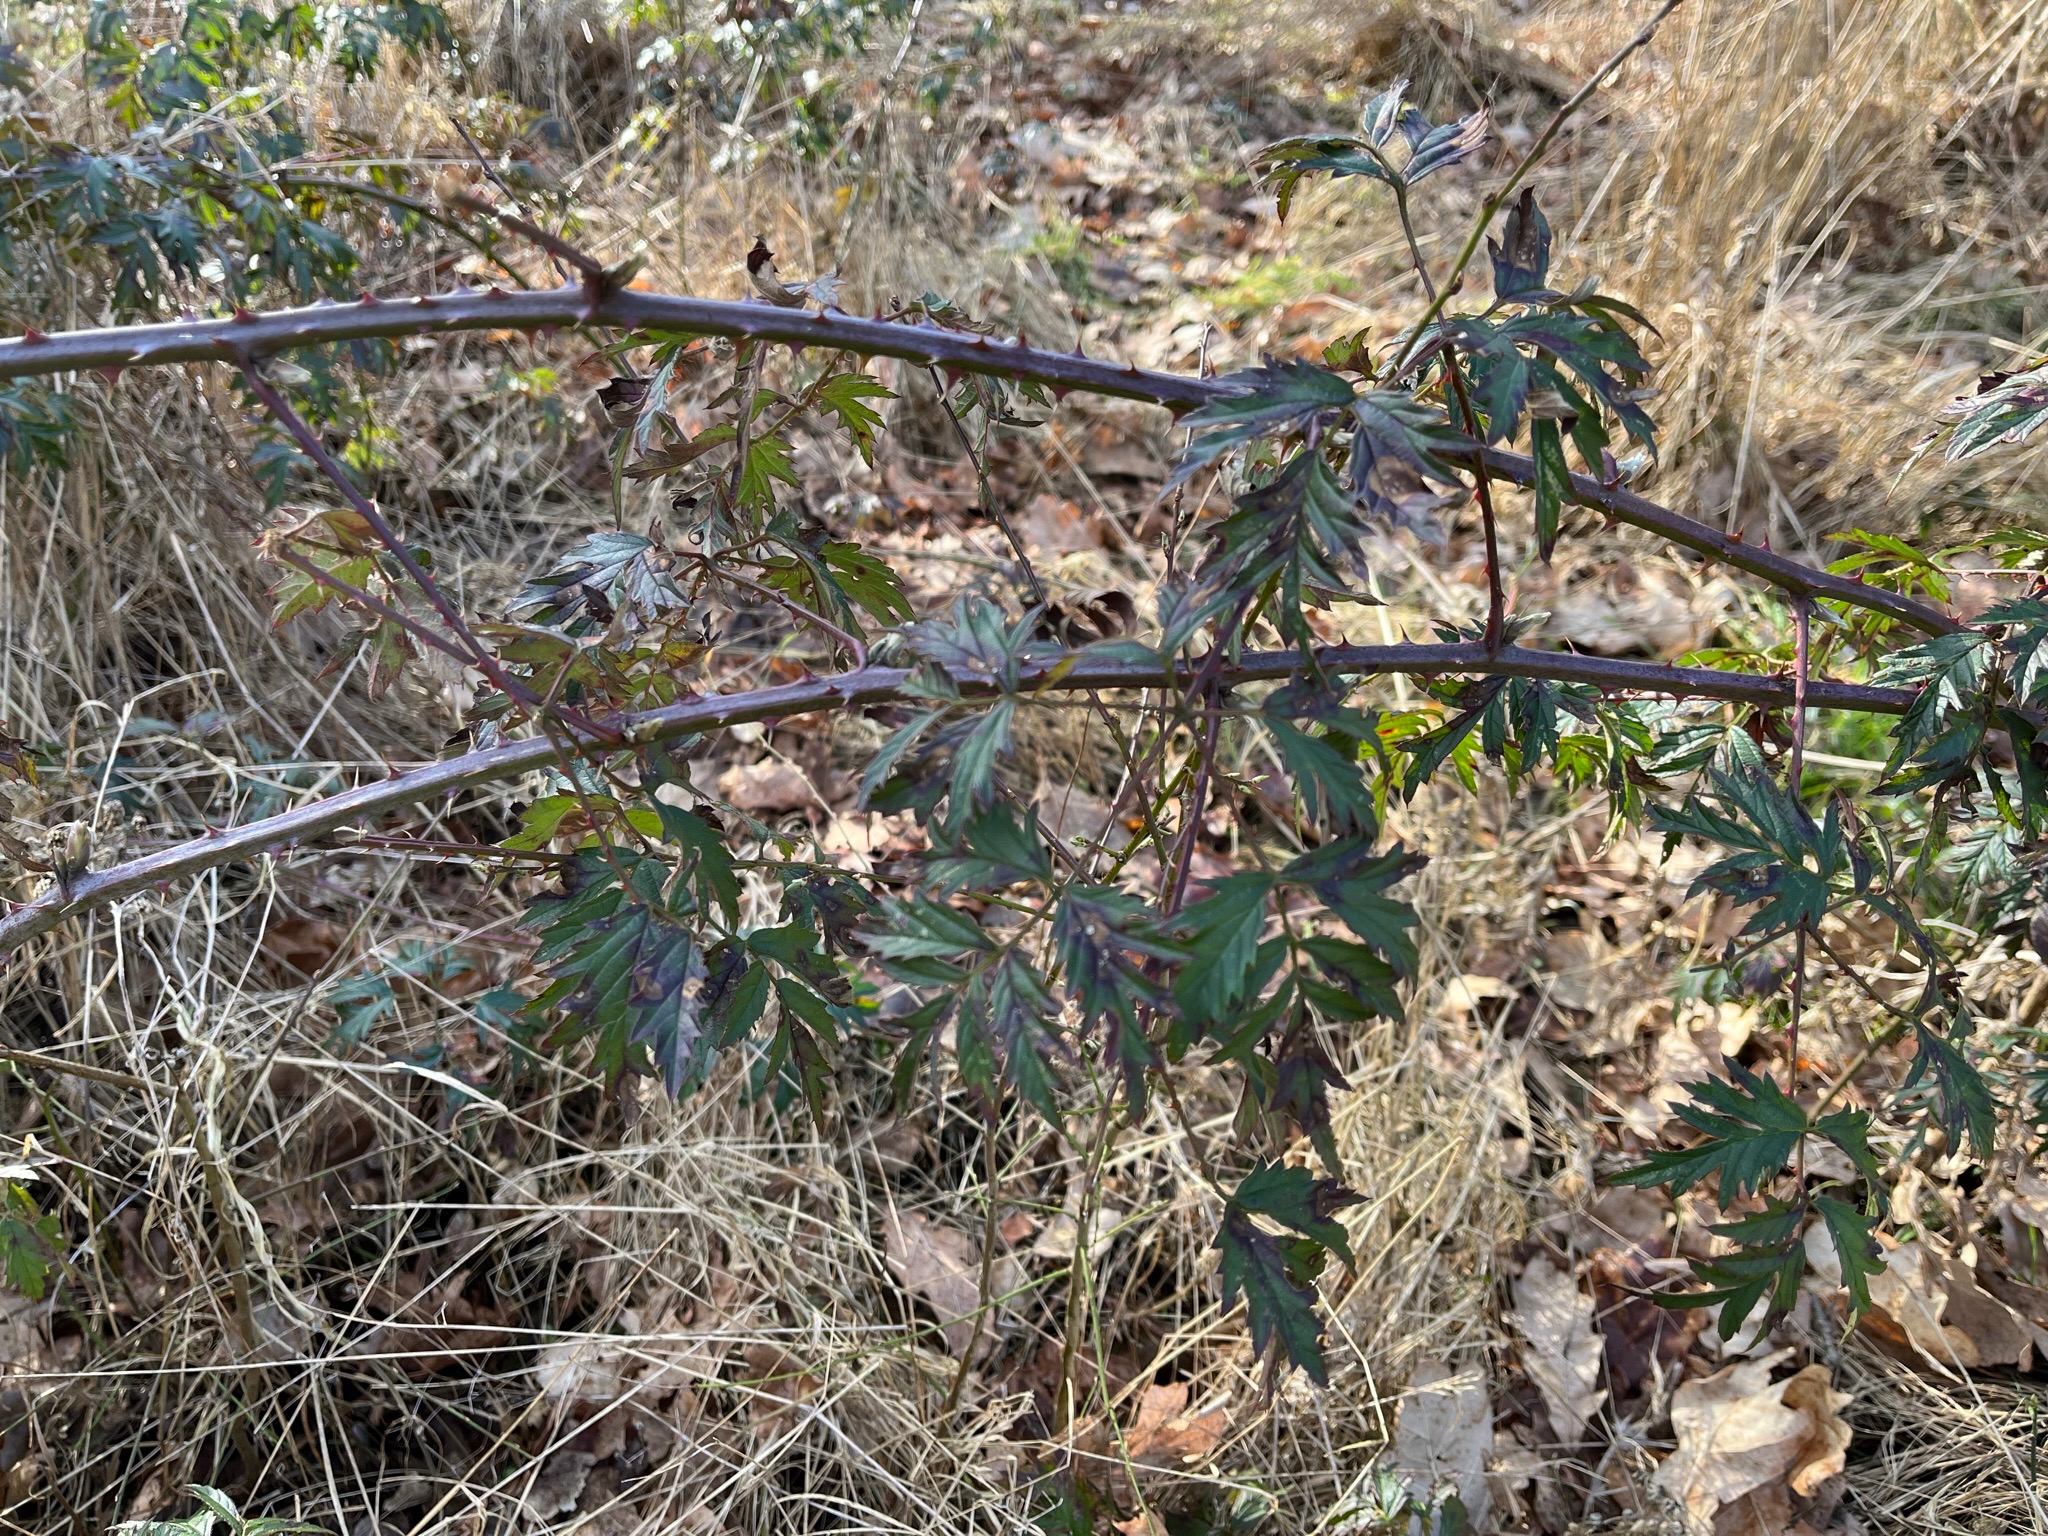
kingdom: Plantae
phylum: Tracheophyta
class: Magnoliopsida
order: Rosales
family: Rosaceae
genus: Rubus
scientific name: Rubus laciniatus
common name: Fliget brombær
